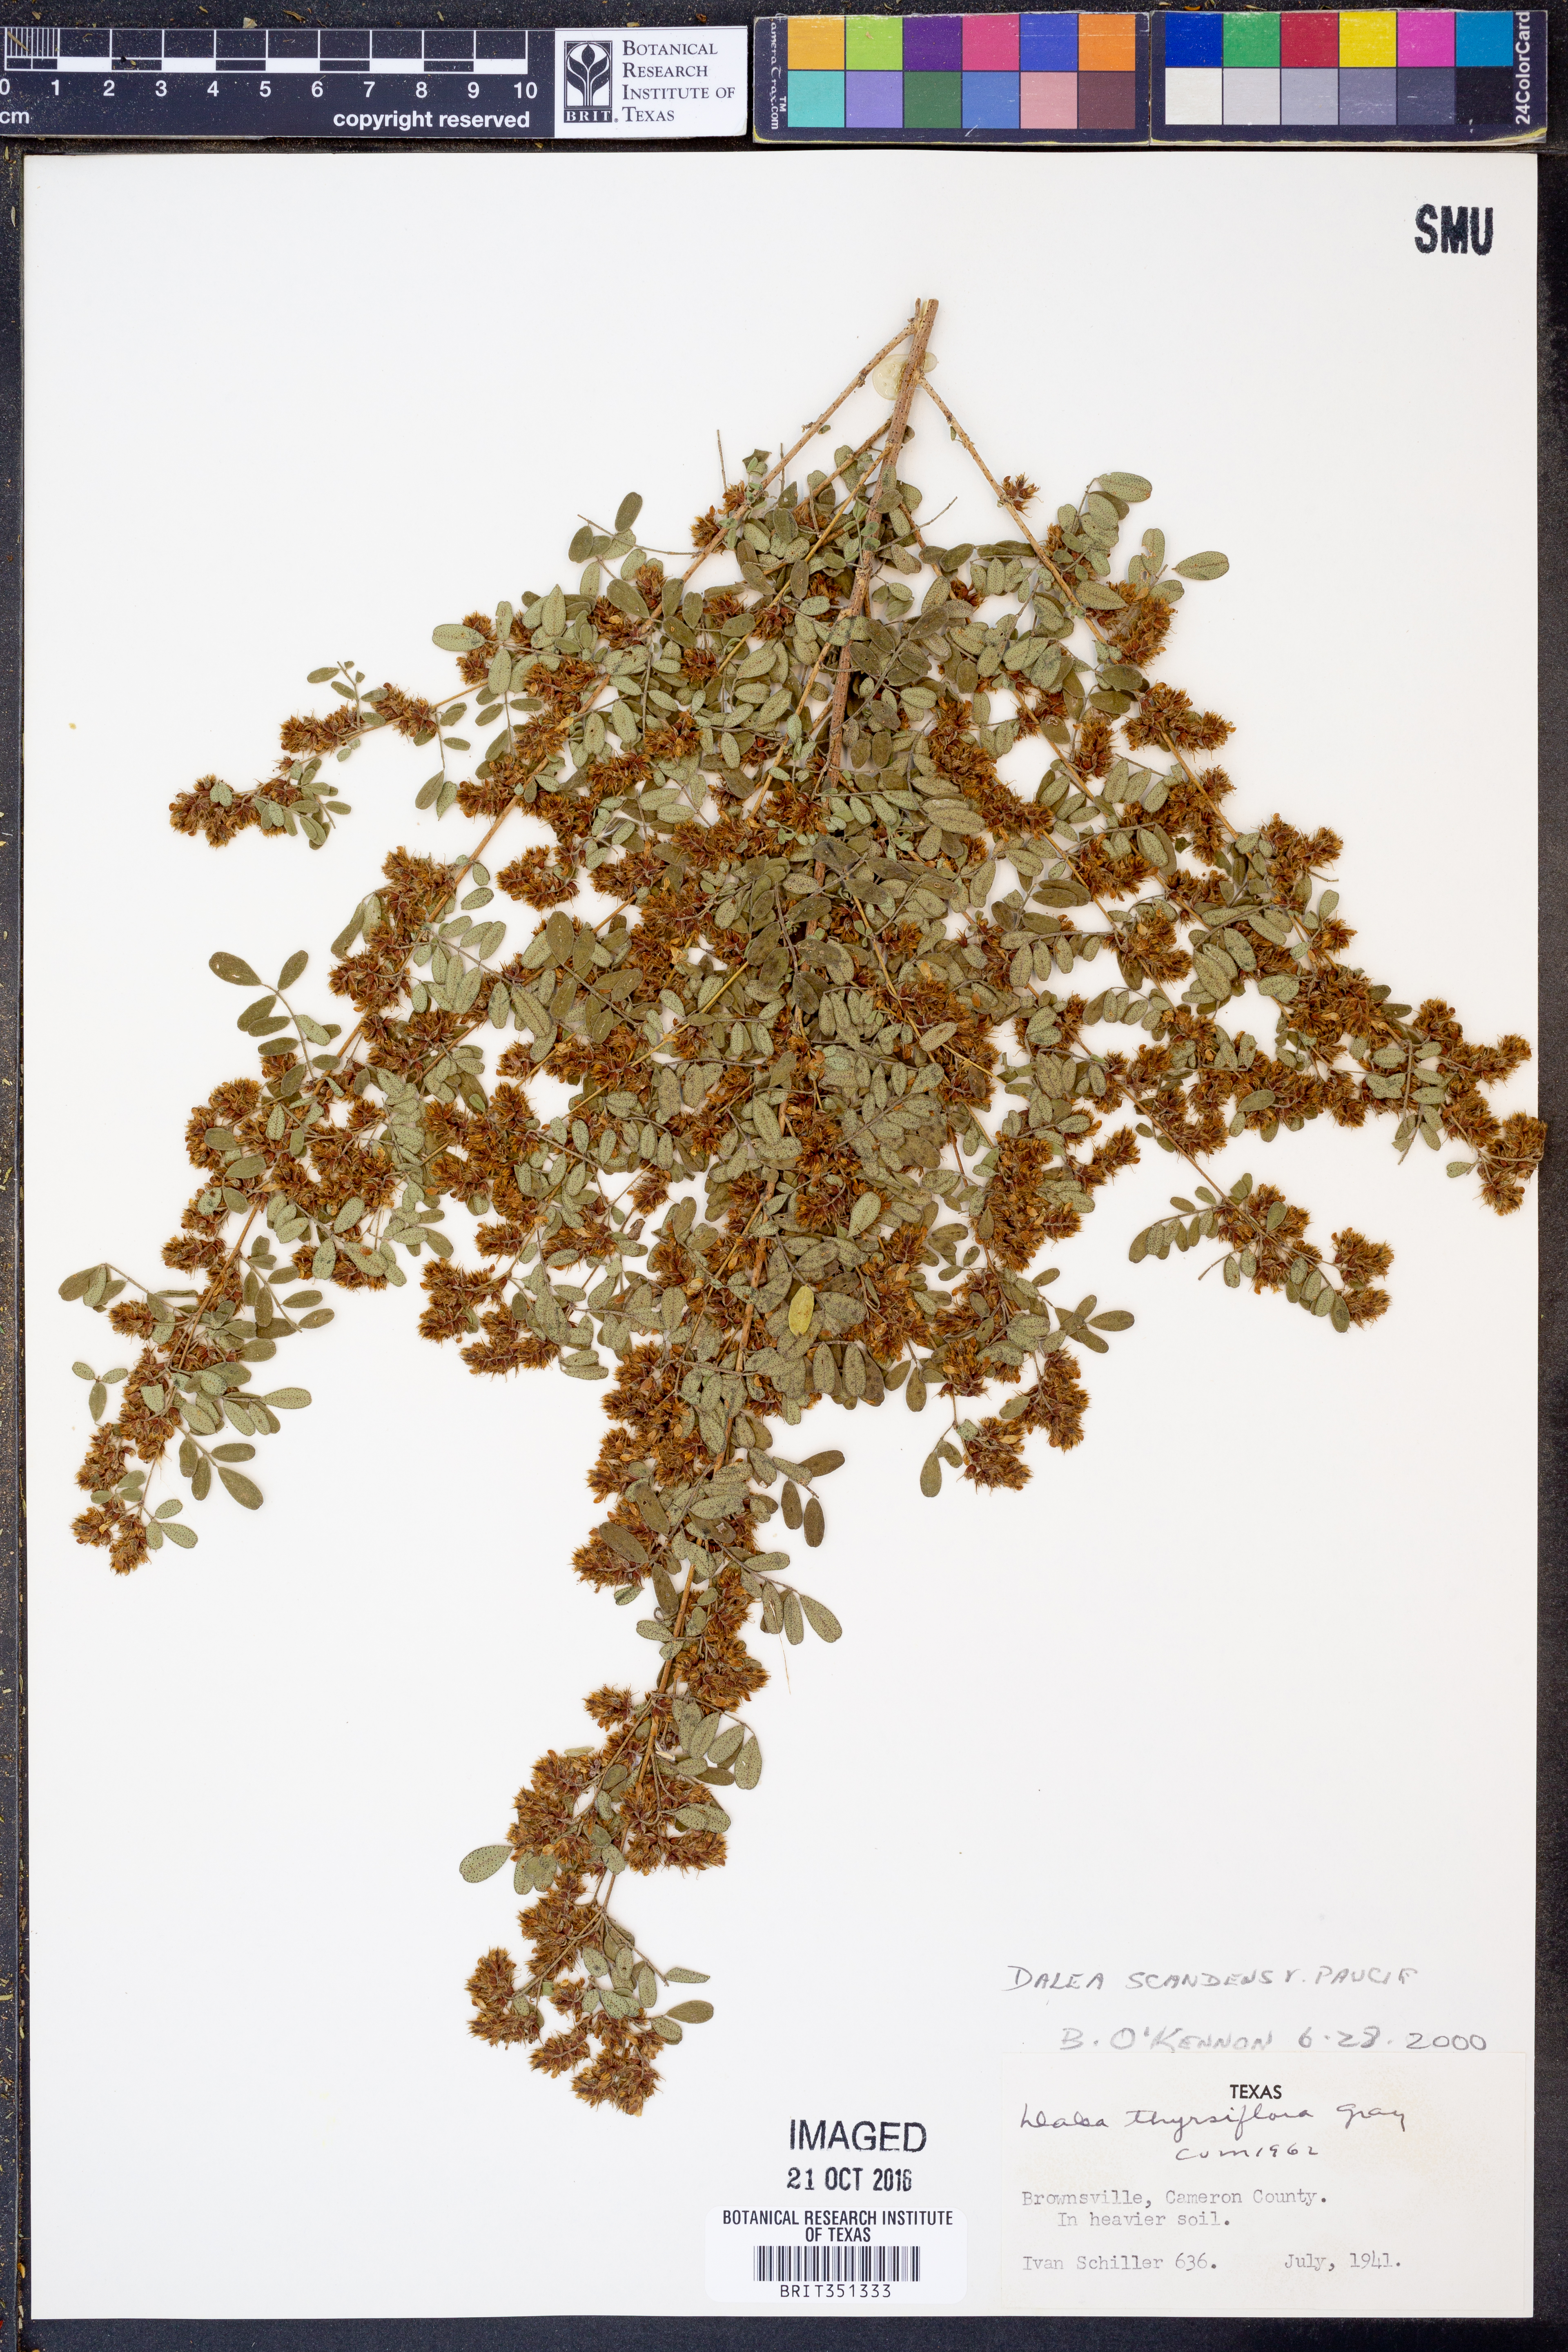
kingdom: Plantae
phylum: Tracheophyta
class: Magnoliopsida
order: Fabales
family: Fabaceae
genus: Dalea
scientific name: Dalea scandens
